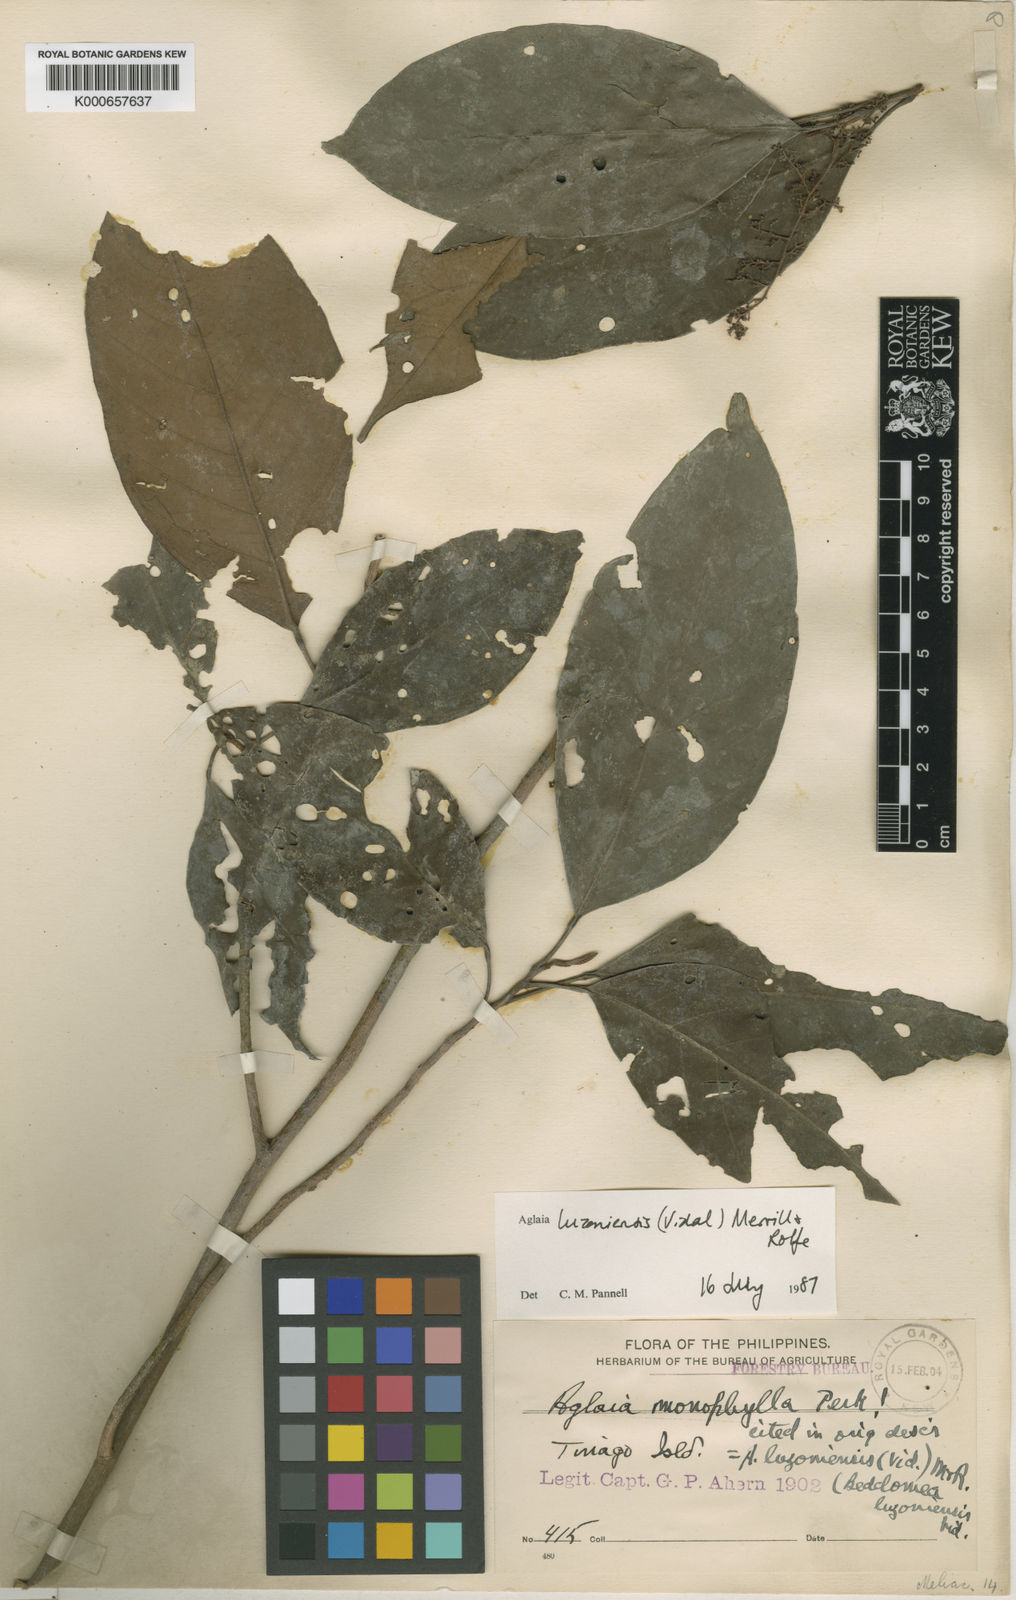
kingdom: Plantae
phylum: Tracheophyta
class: Magnoliopsida
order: Sapindales
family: Meliaceae
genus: Aglaia
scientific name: Aglaia luzoniensis
